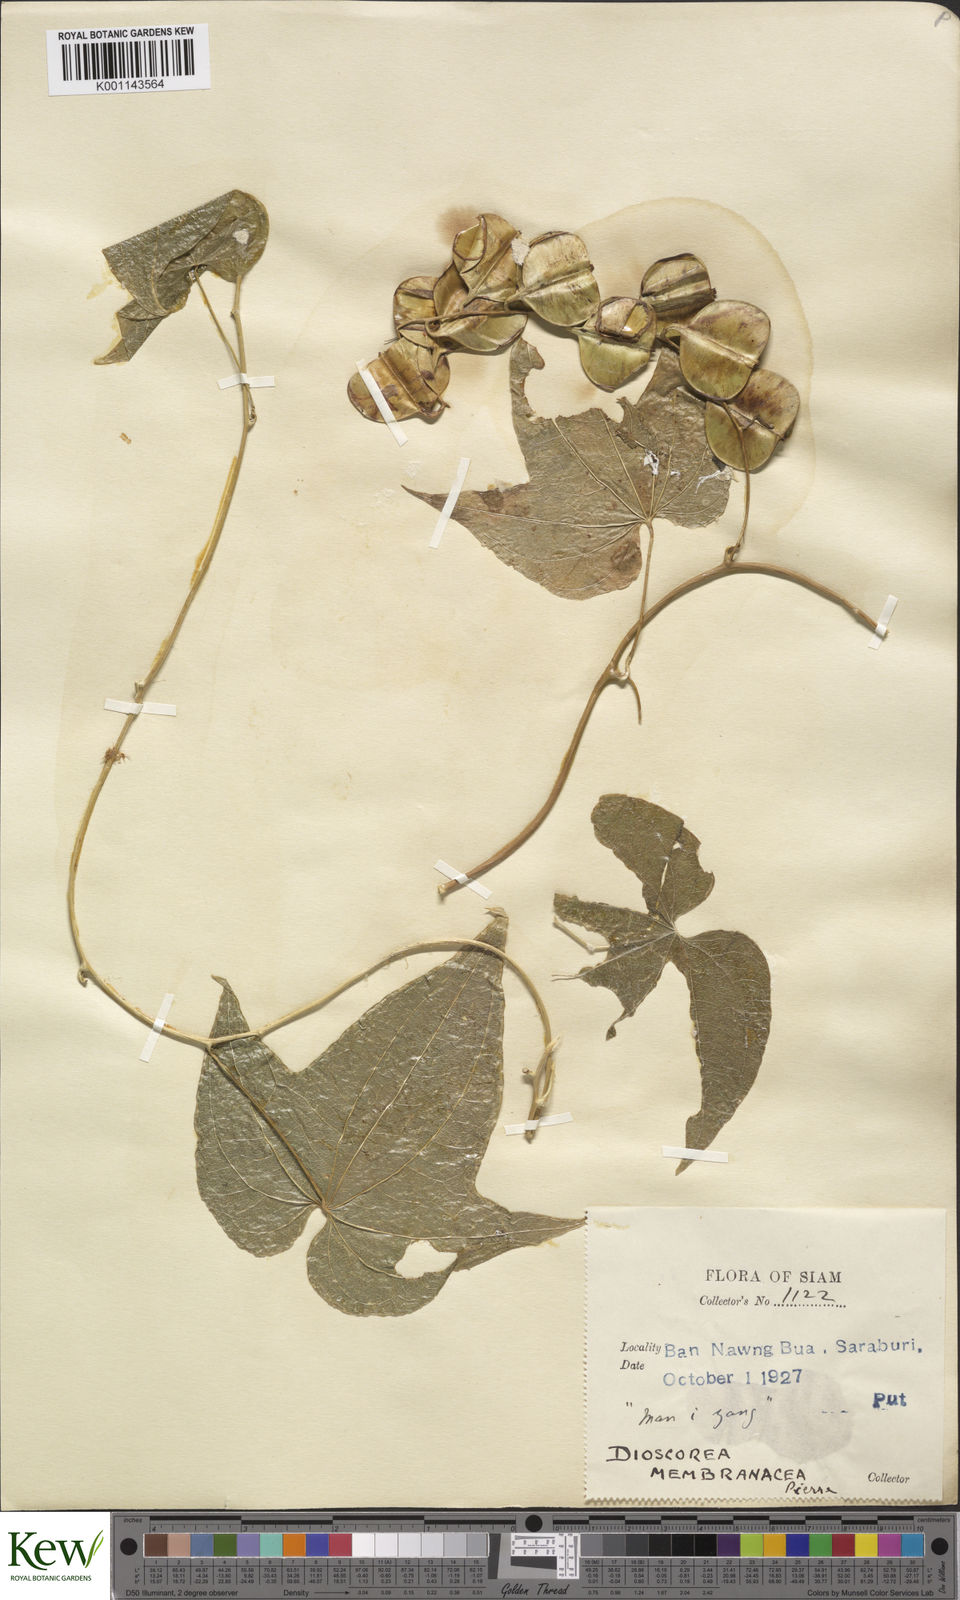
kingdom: Plantae
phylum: Tracheophyta
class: Liliopsida
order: Dioscoreales
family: Dioscoreaceae
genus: Dioscorea
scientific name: Dioscorea membranacea
